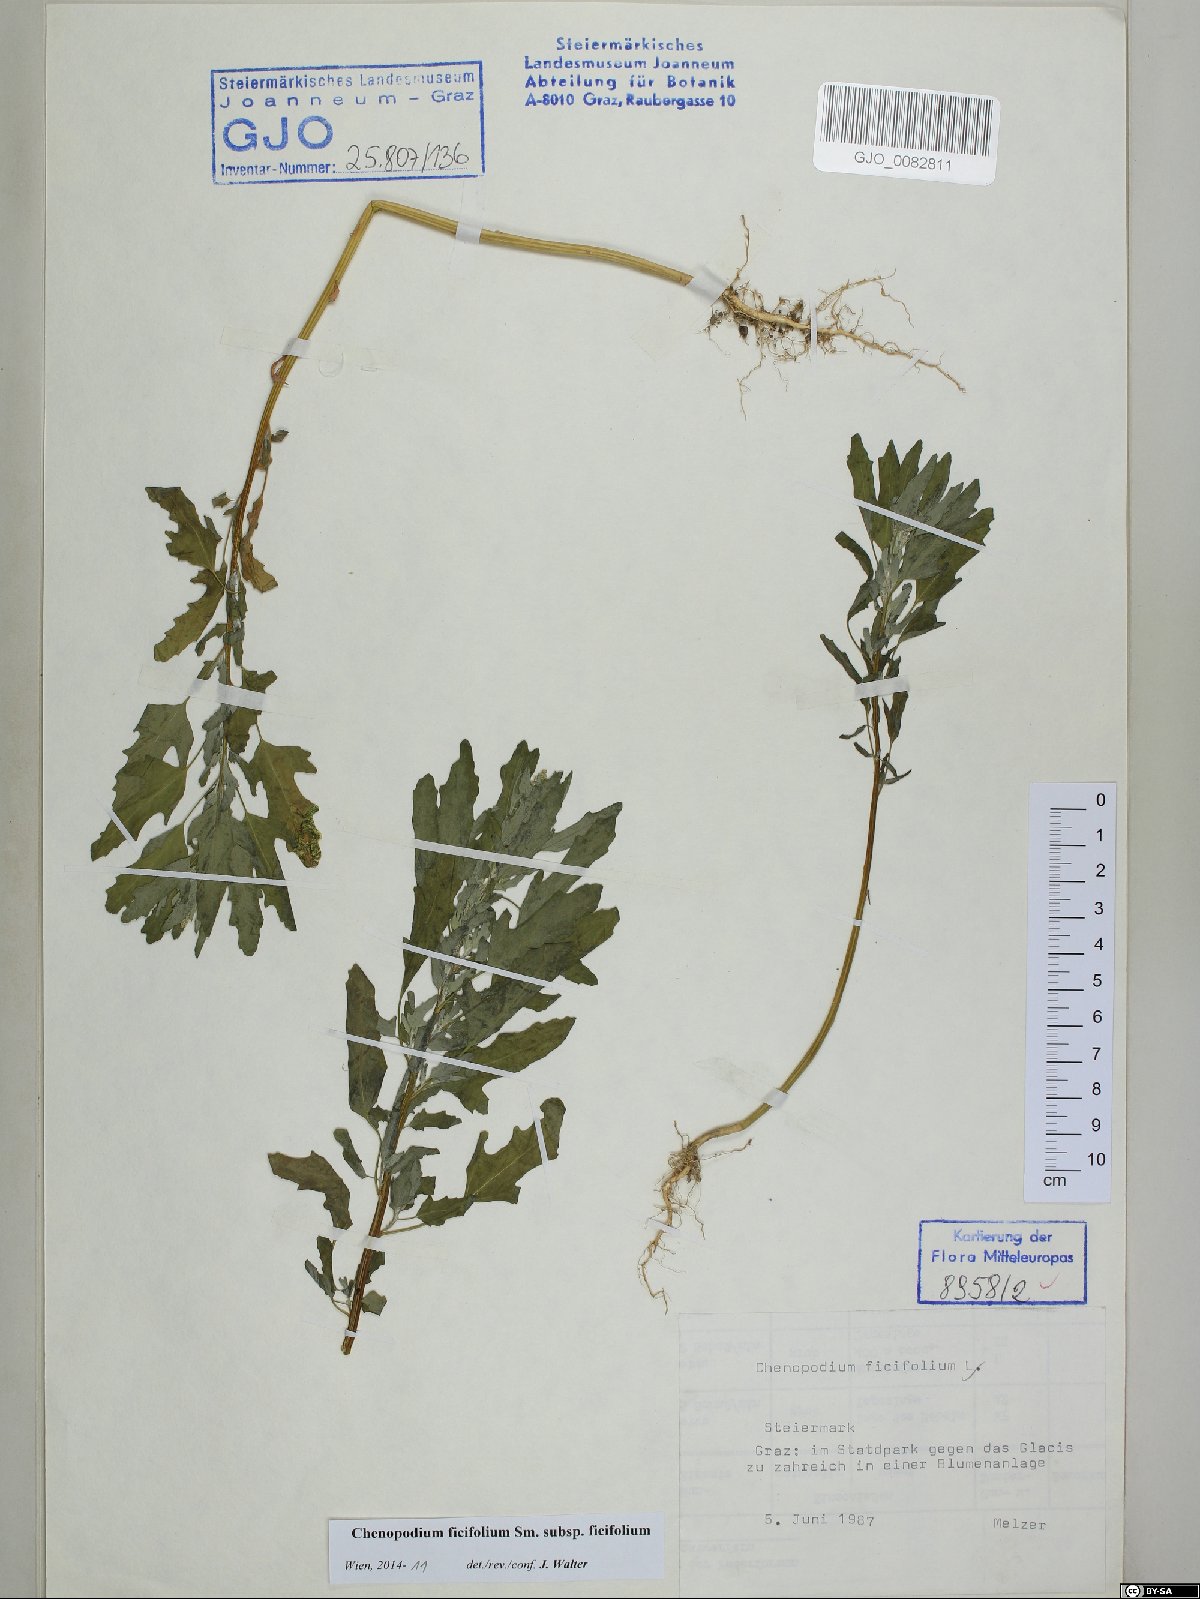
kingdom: Plantae
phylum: Tracheophyta
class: Magnoliopsida
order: Caryophyllales
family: Amaranthaceae
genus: Chenopodium
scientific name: Chenopodium ficifolium
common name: Fig-leaved goosefoot
